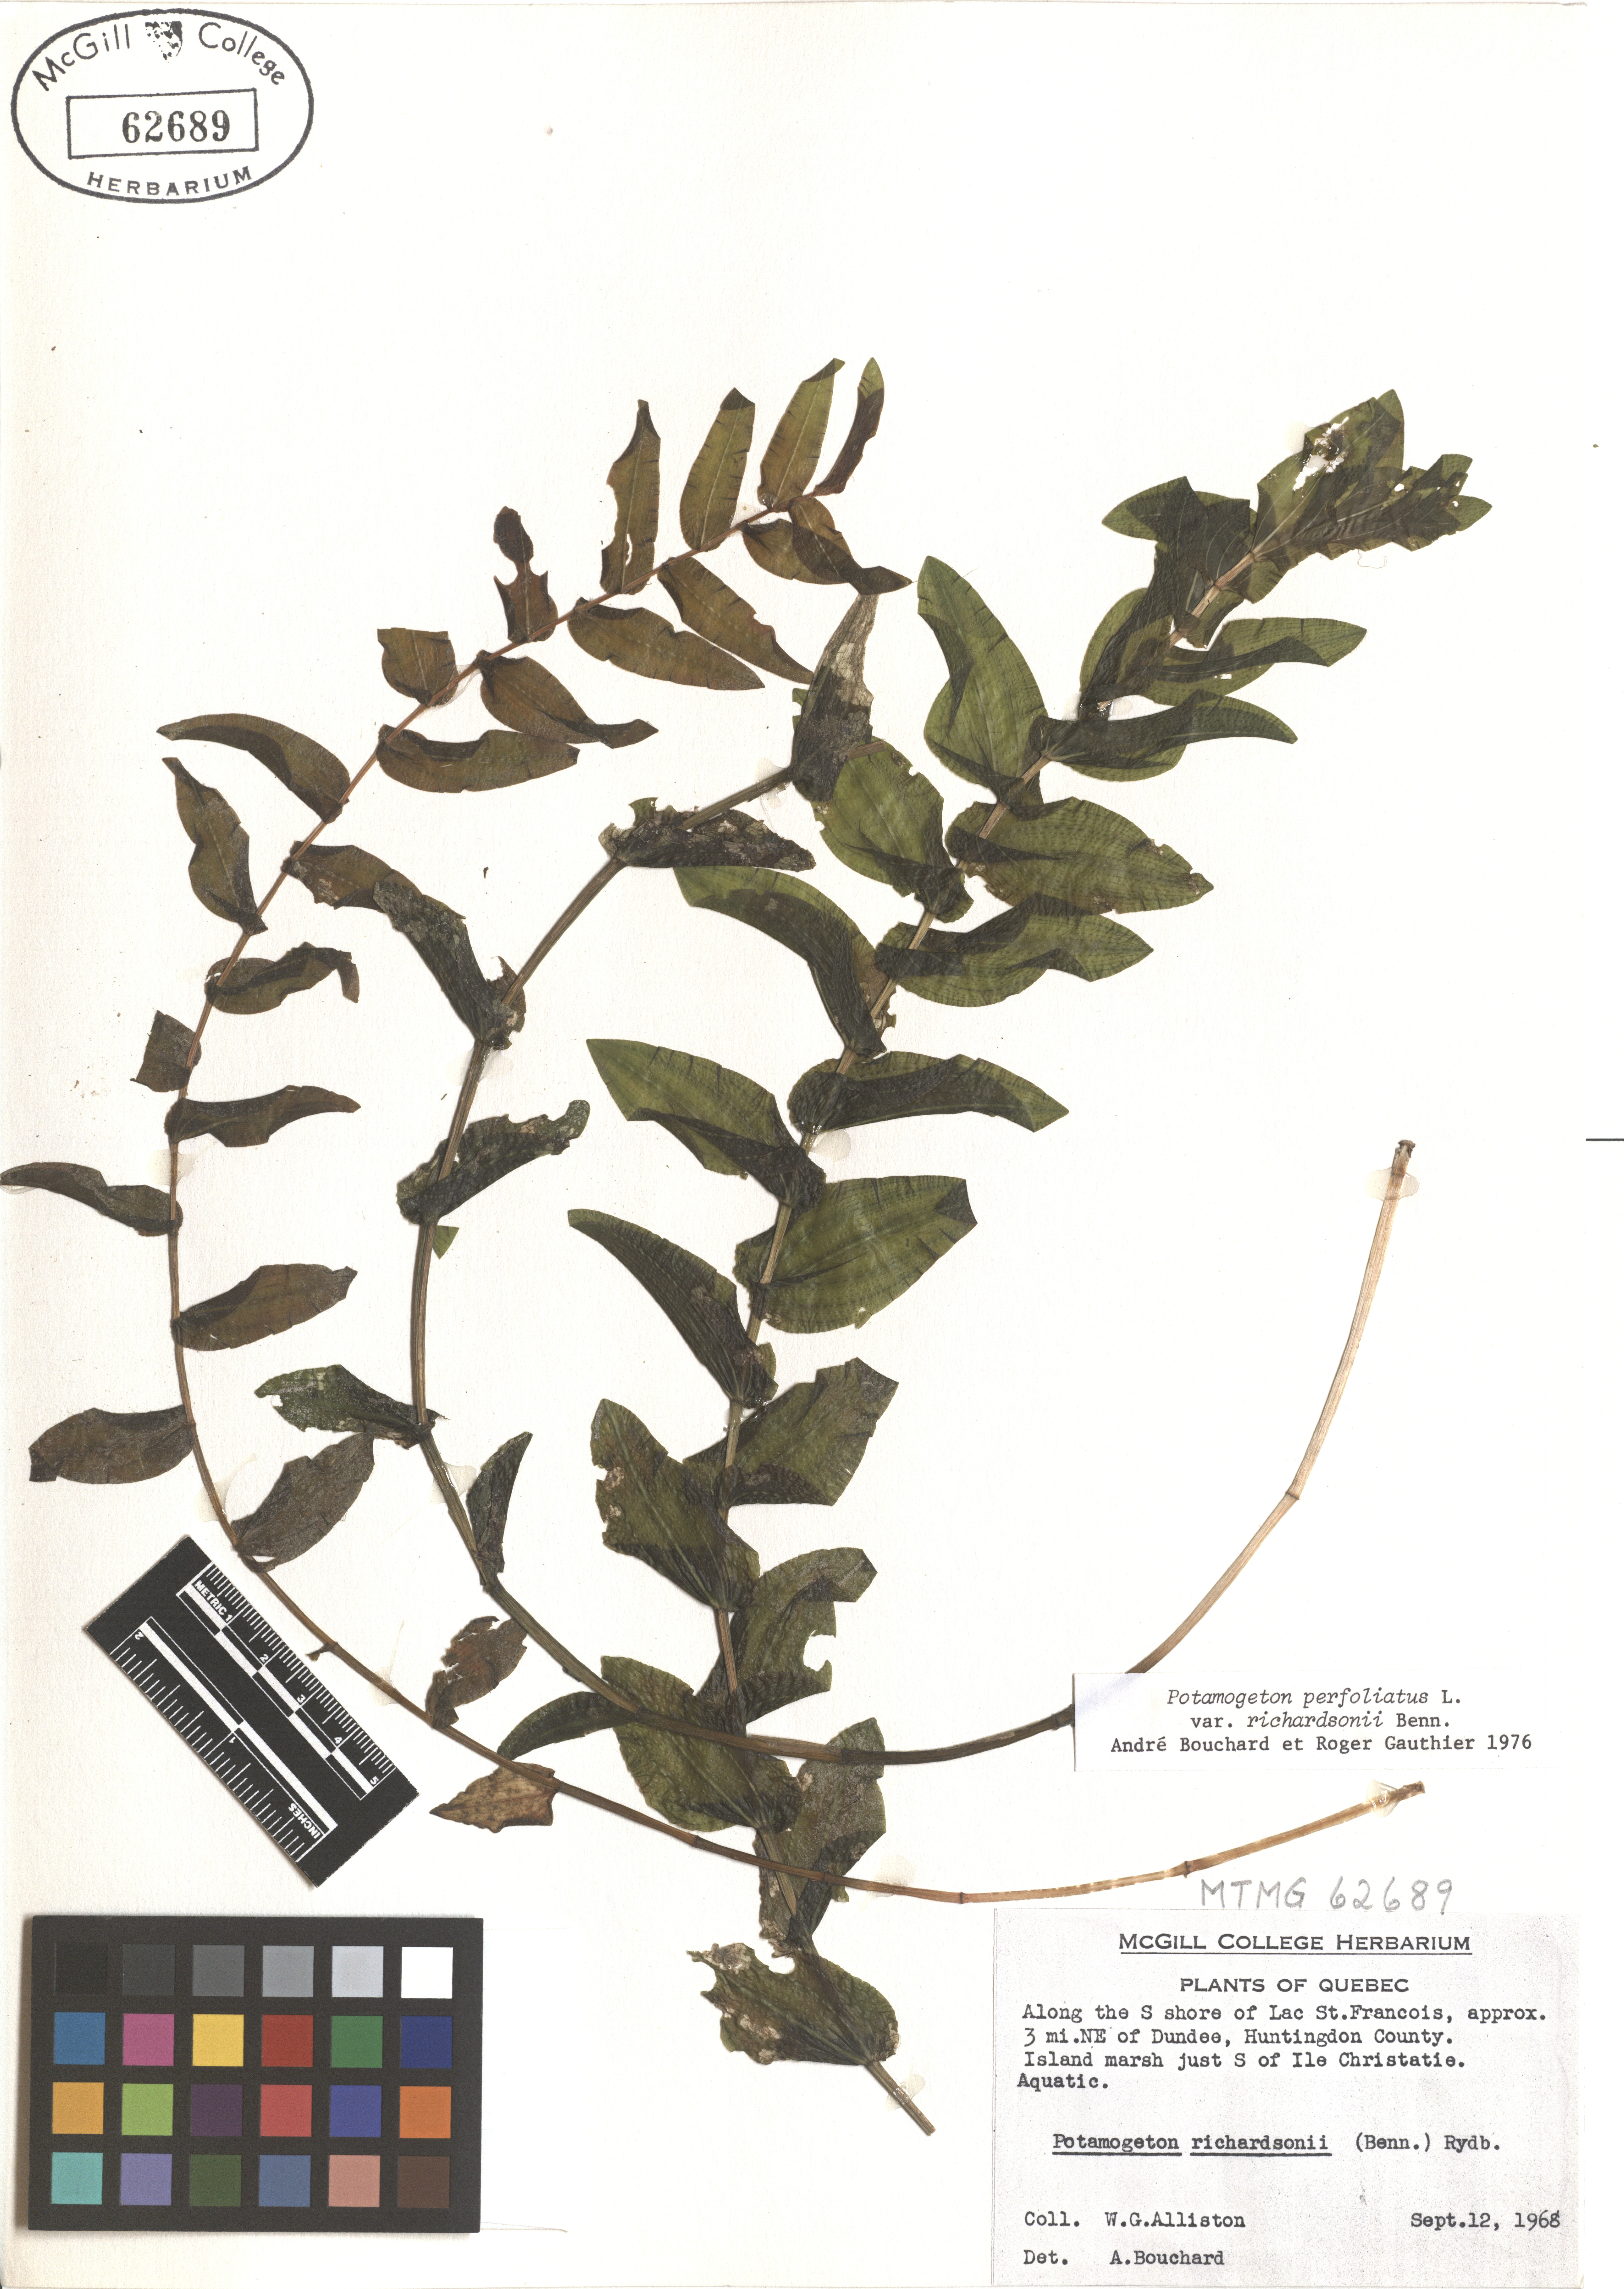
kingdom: Plantae
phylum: Tracheophyta
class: Liliopsida
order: Alismatales
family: Potamogetonaceae
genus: Potamogeton
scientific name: Potamogeton richardsonii
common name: Richardson's pondweed
